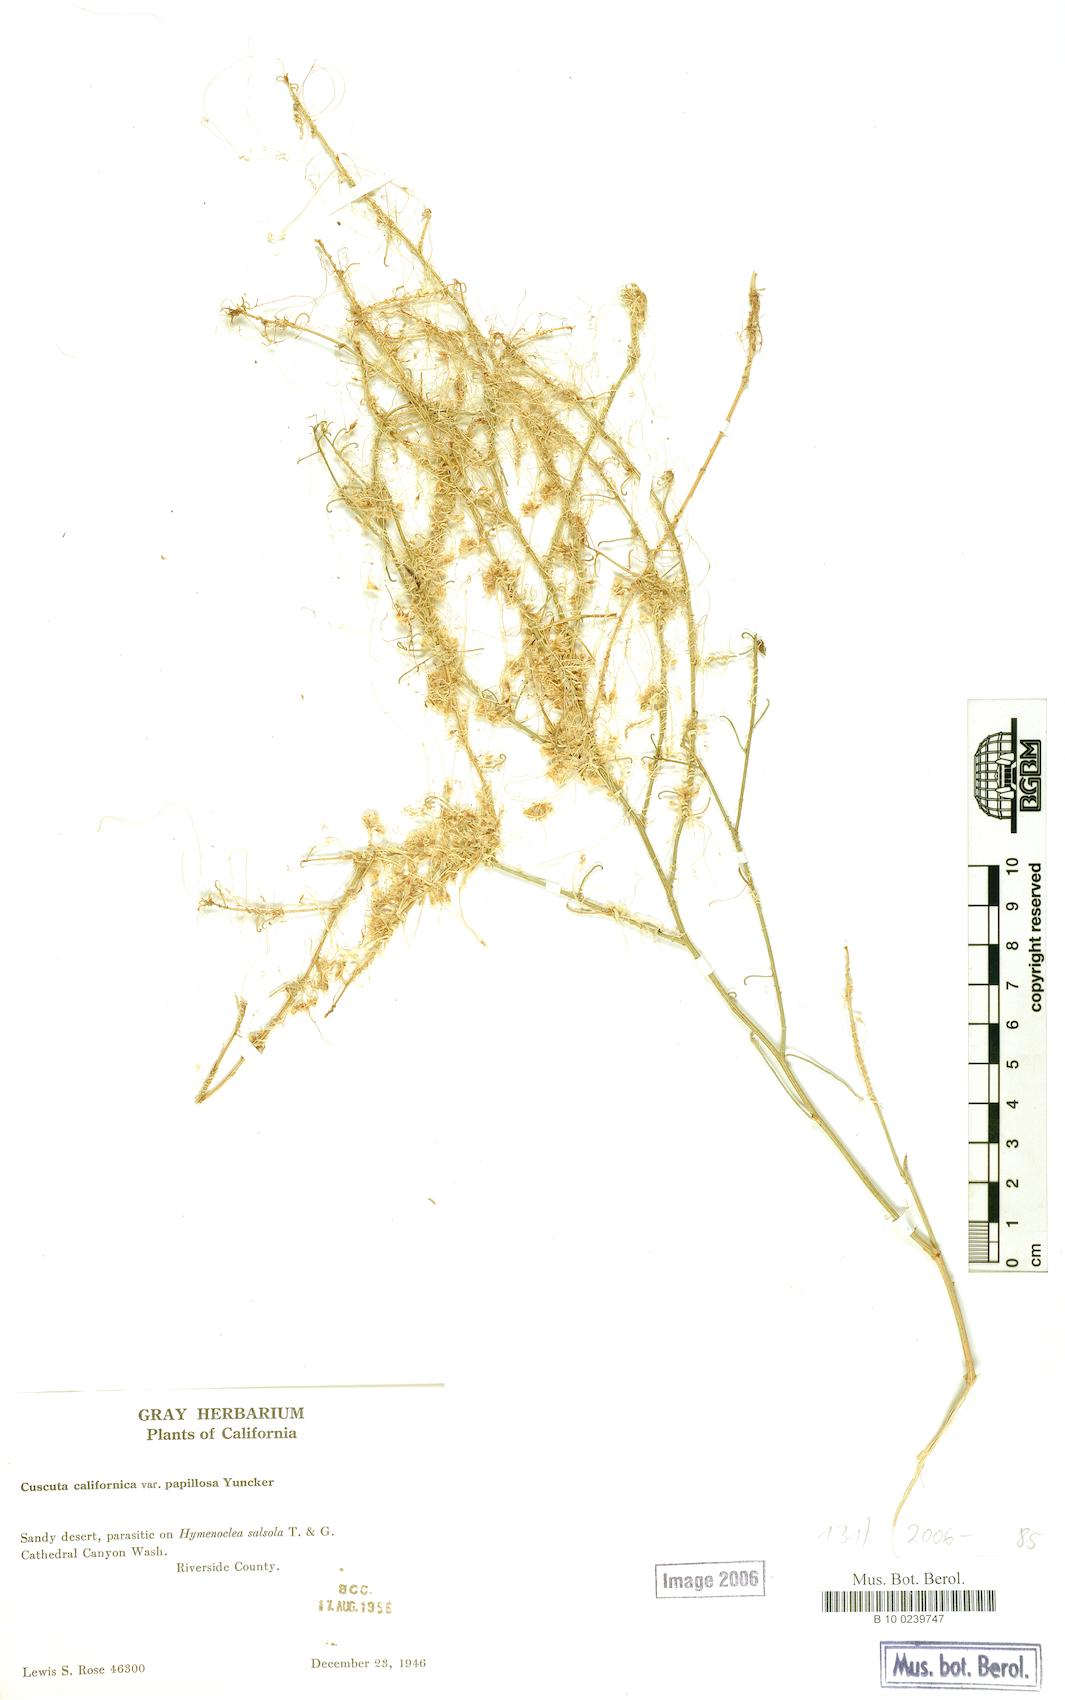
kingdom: Plantae
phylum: Tracheophyta
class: Magnoliopsida
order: Solanales
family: Convolvulaceae
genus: Cuscuta
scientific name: Cuscuta californica
